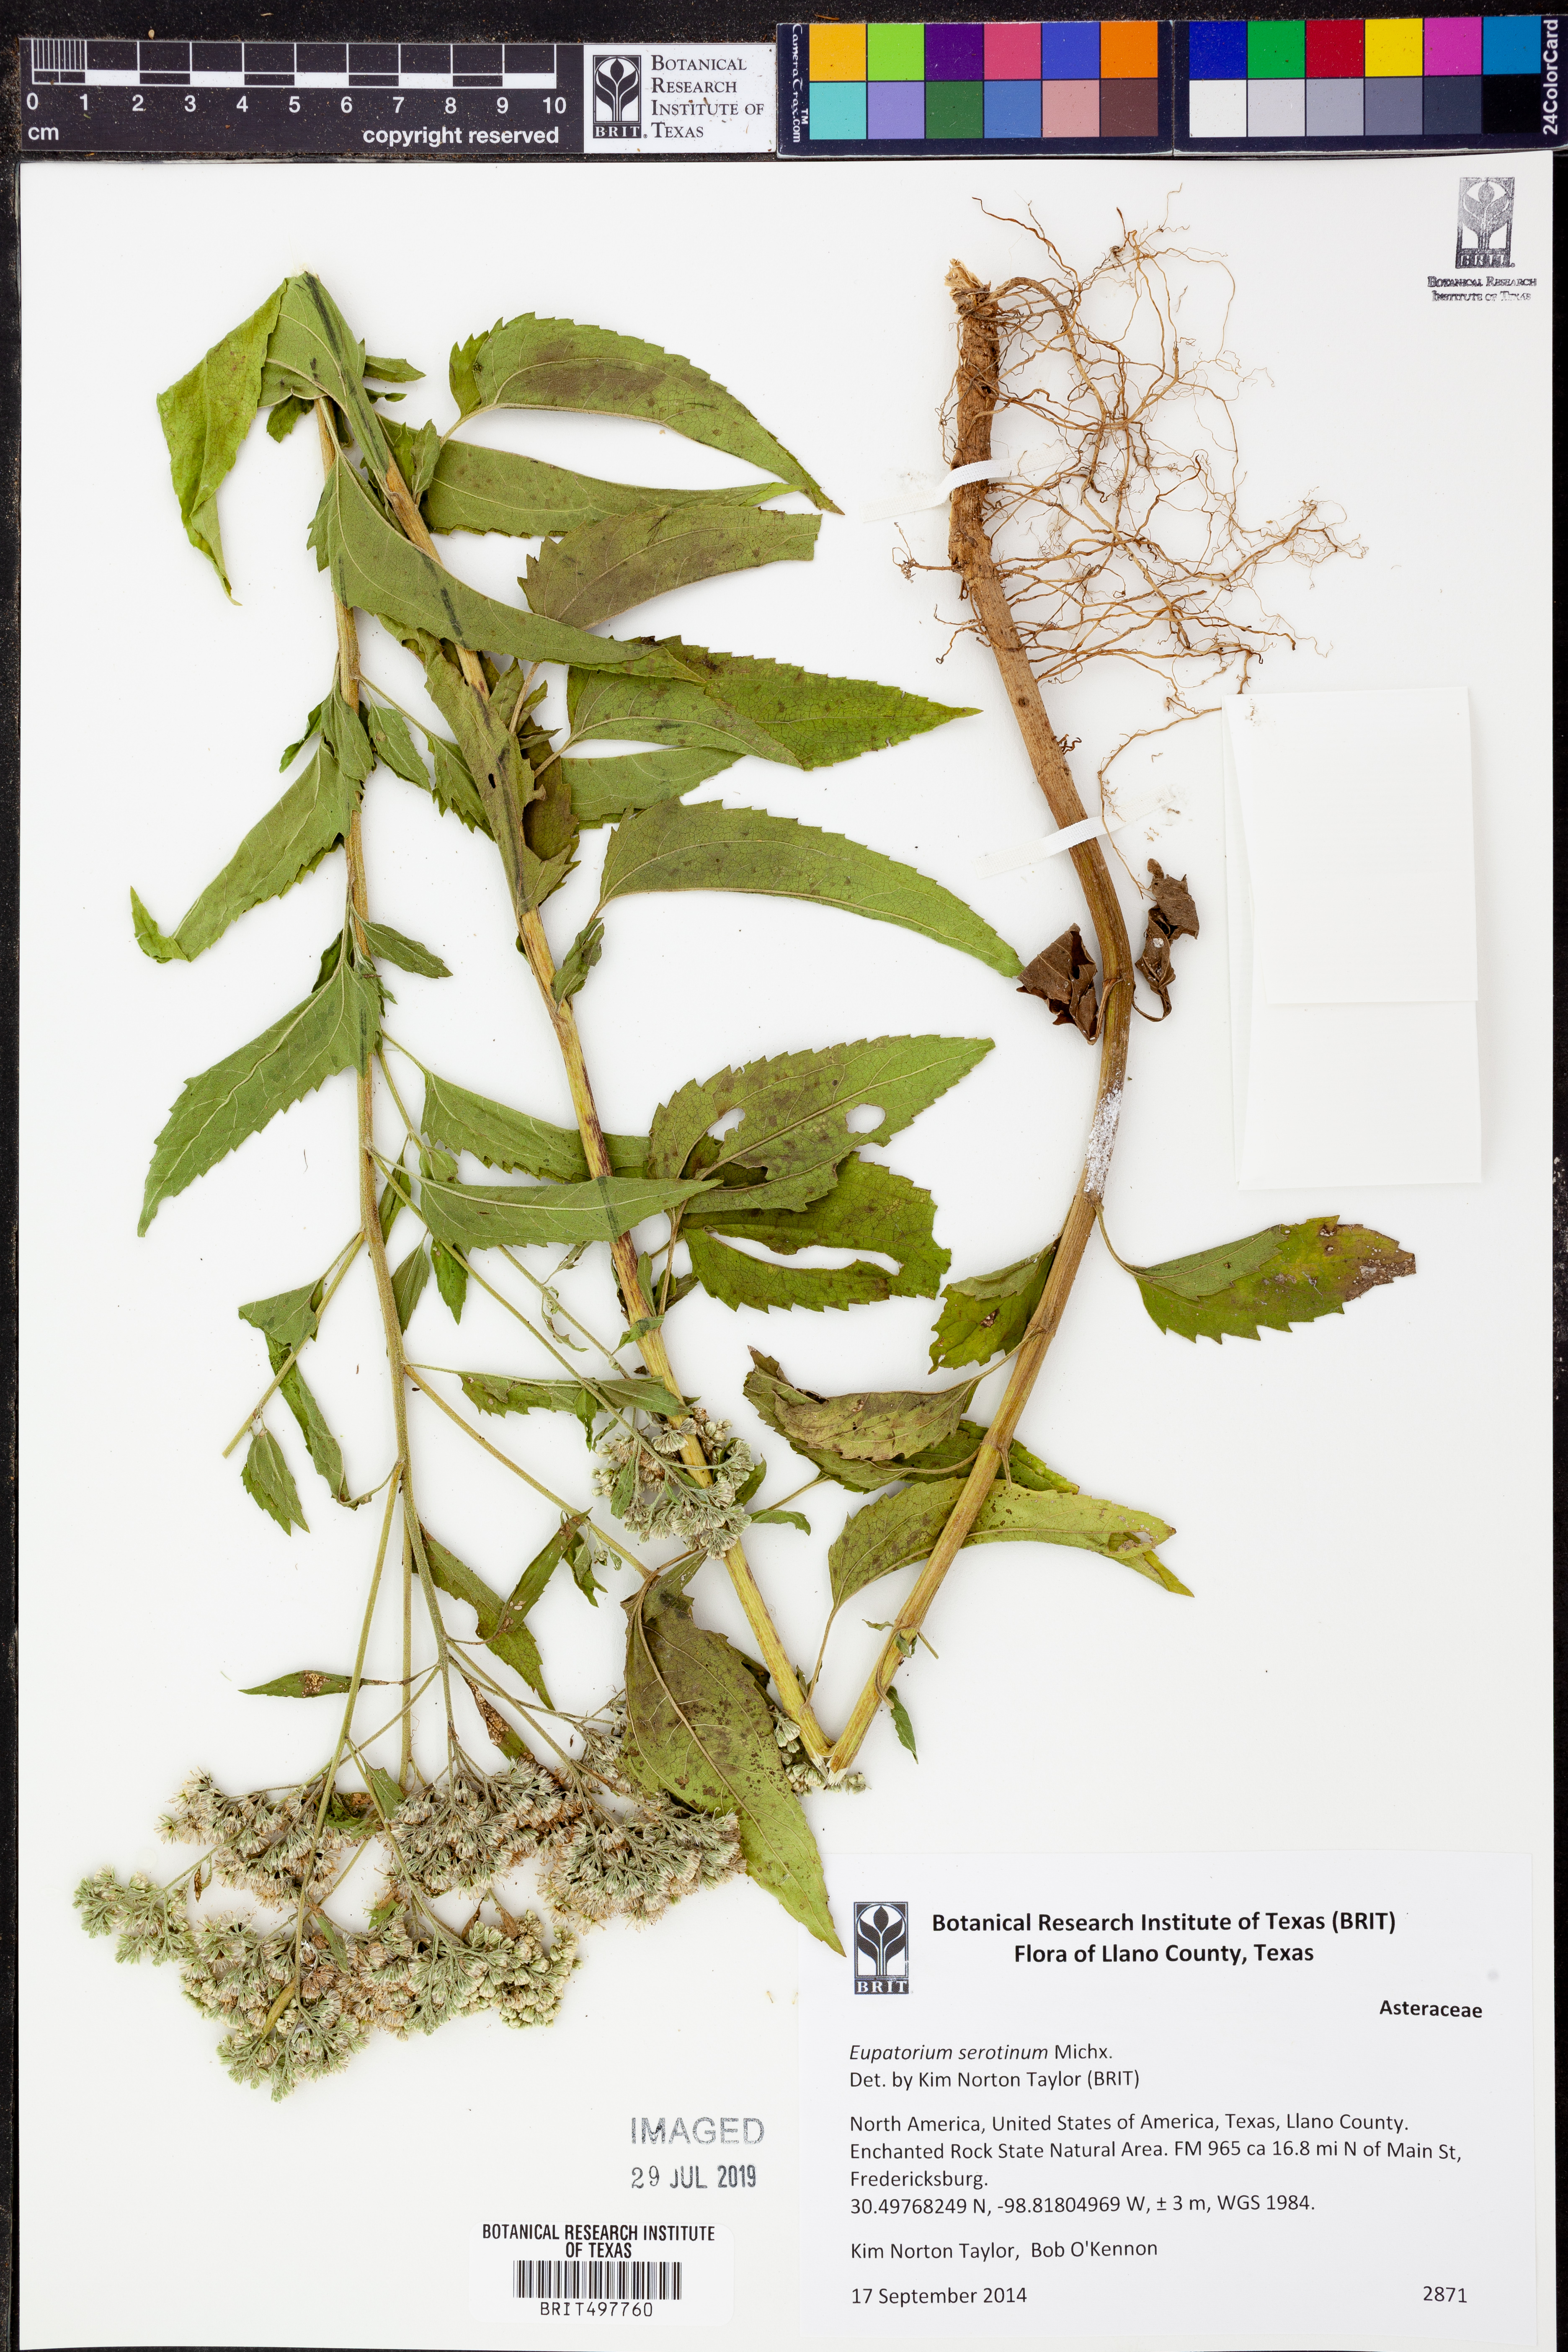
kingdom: Plantae
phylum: Tracheophyta
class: Magnoliopsida
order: Asterales
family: Asteraceae
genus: Eupatorium
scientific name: Eupatorium serotinum
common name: Late boneset
